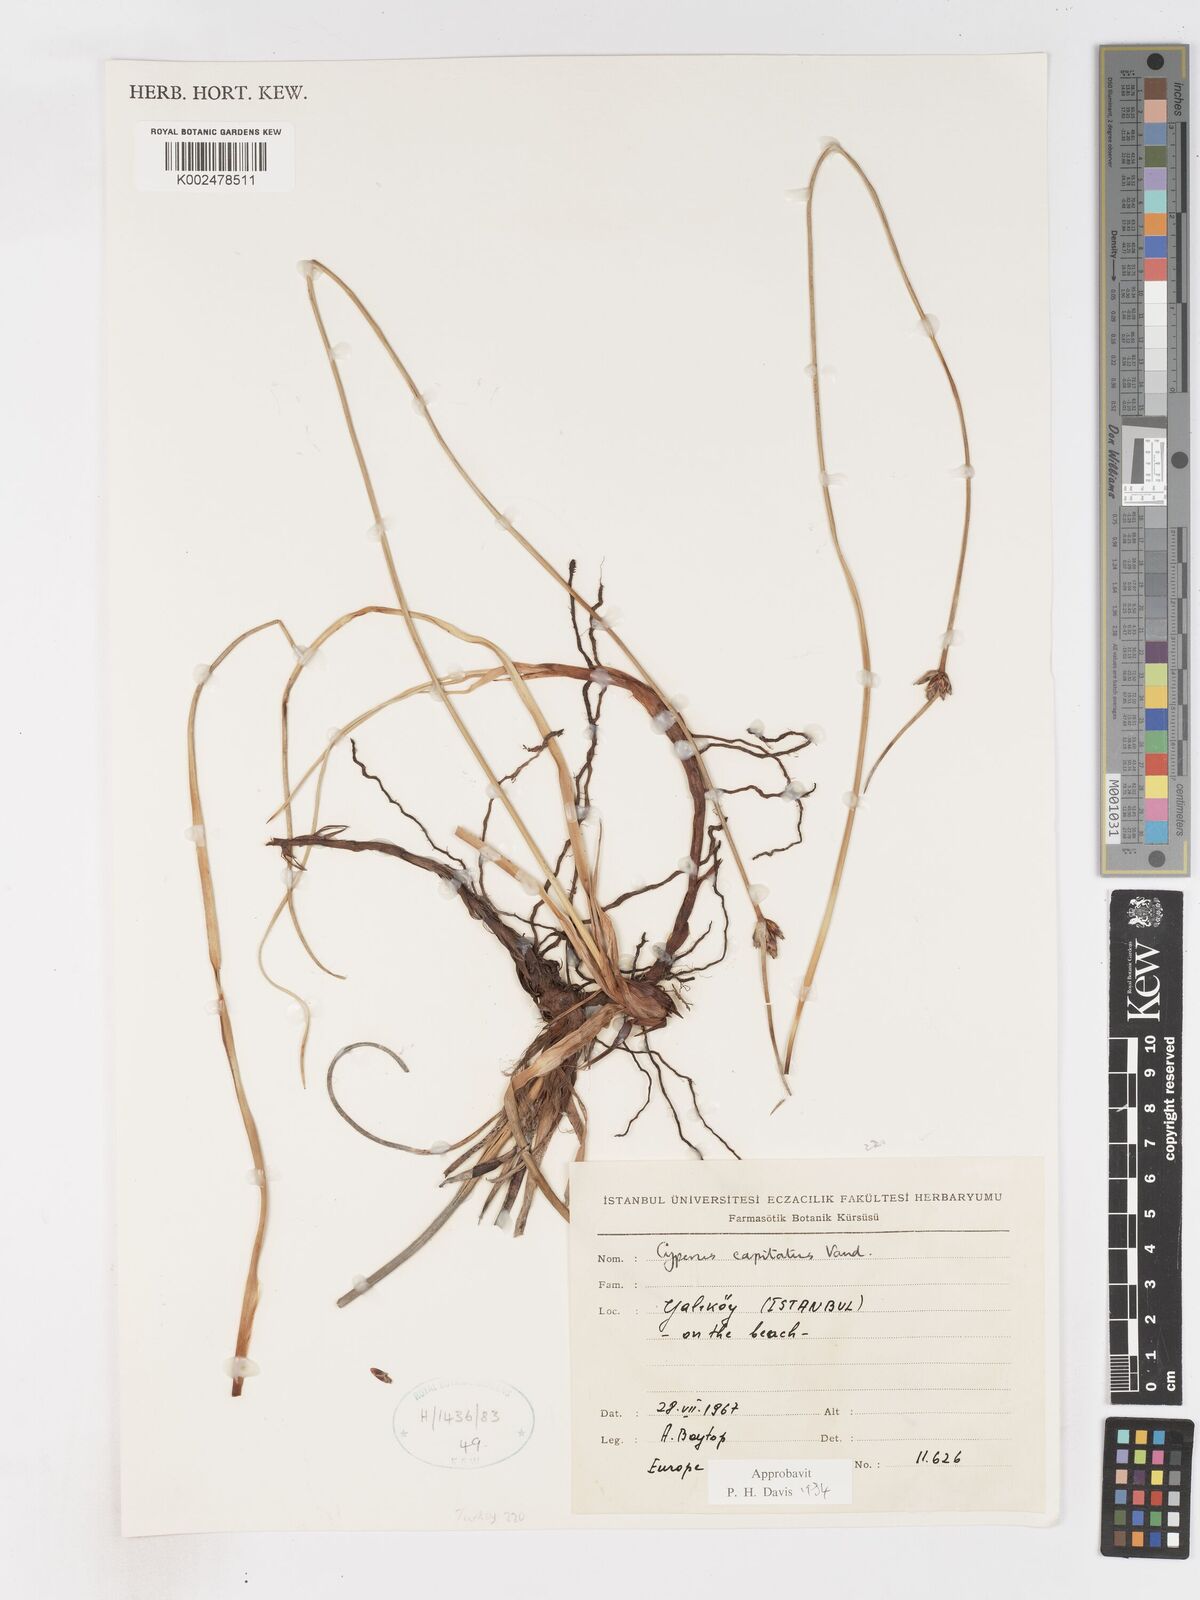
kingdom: Plantae
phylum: Tracheophyta
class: Liliopsida
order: Poales
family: Cyperaceae
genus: Cyperus
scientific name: Cyperus capitatus
